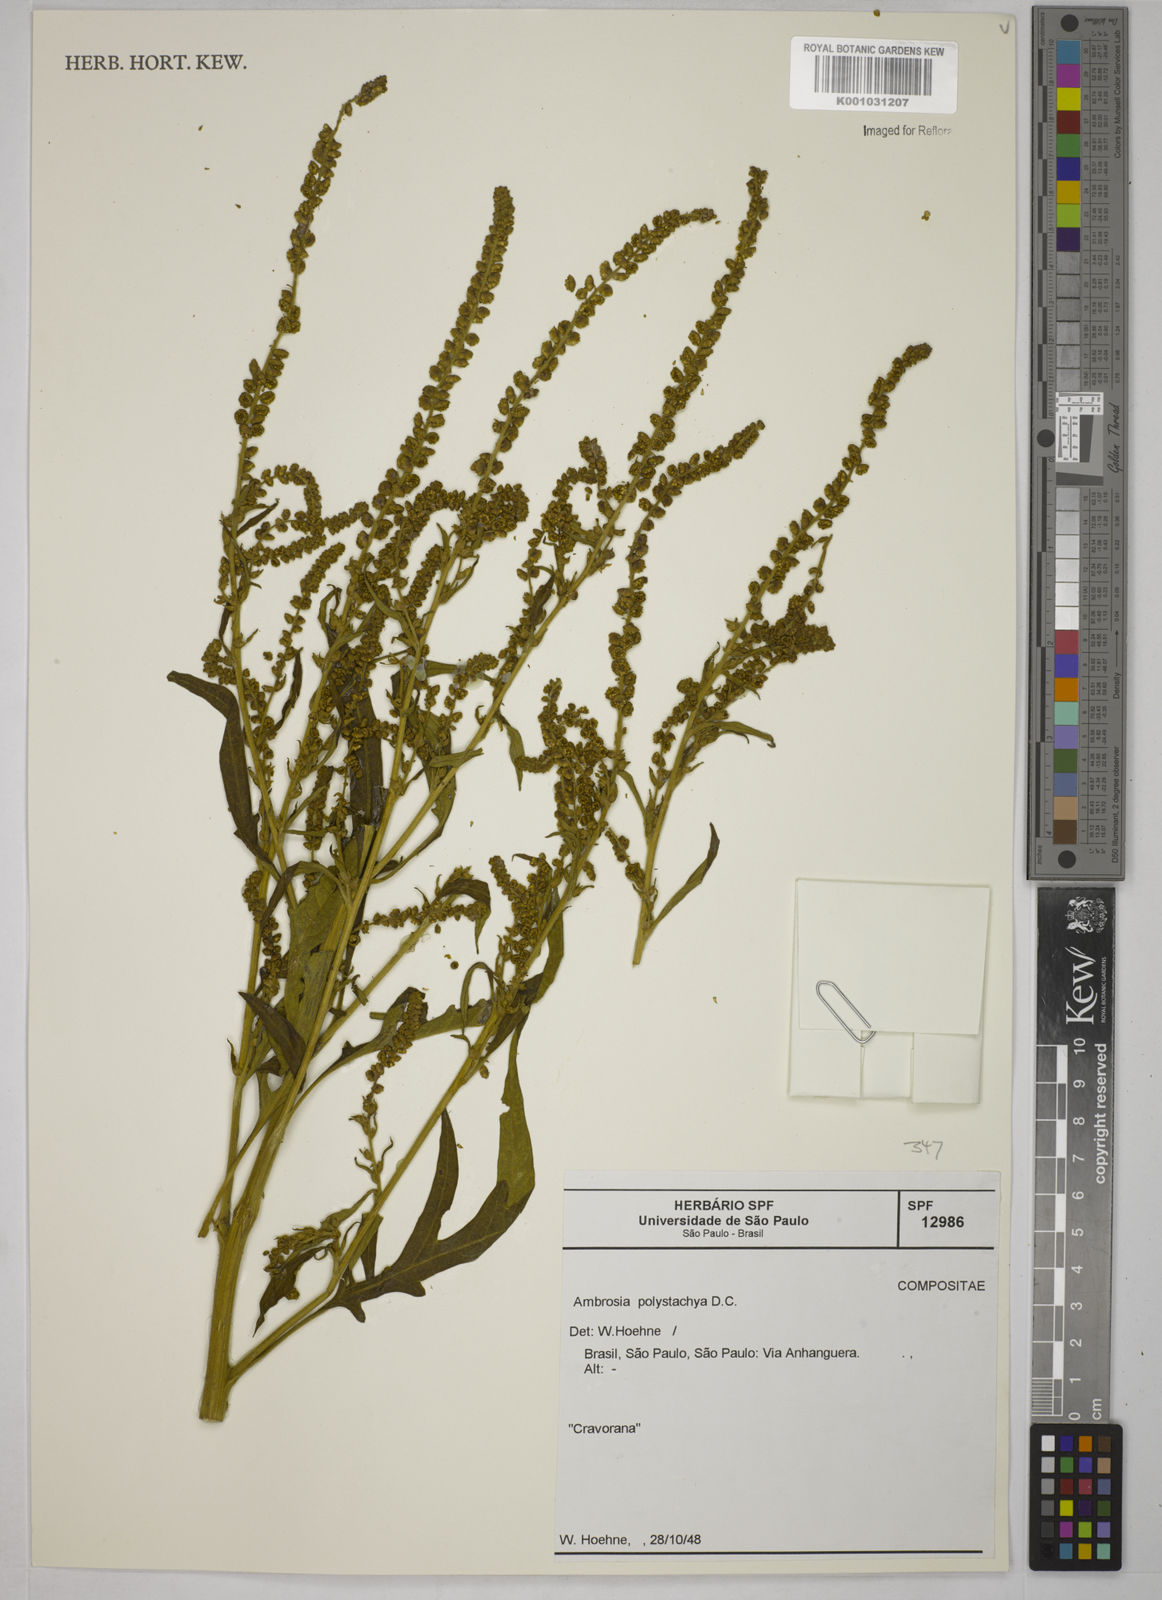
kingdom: Plantae
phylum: Tracheophyta
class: Magnoliopsida
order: Asterales
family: Asteraceae
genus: Ambrosia
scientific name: Ambrosia polystachya
